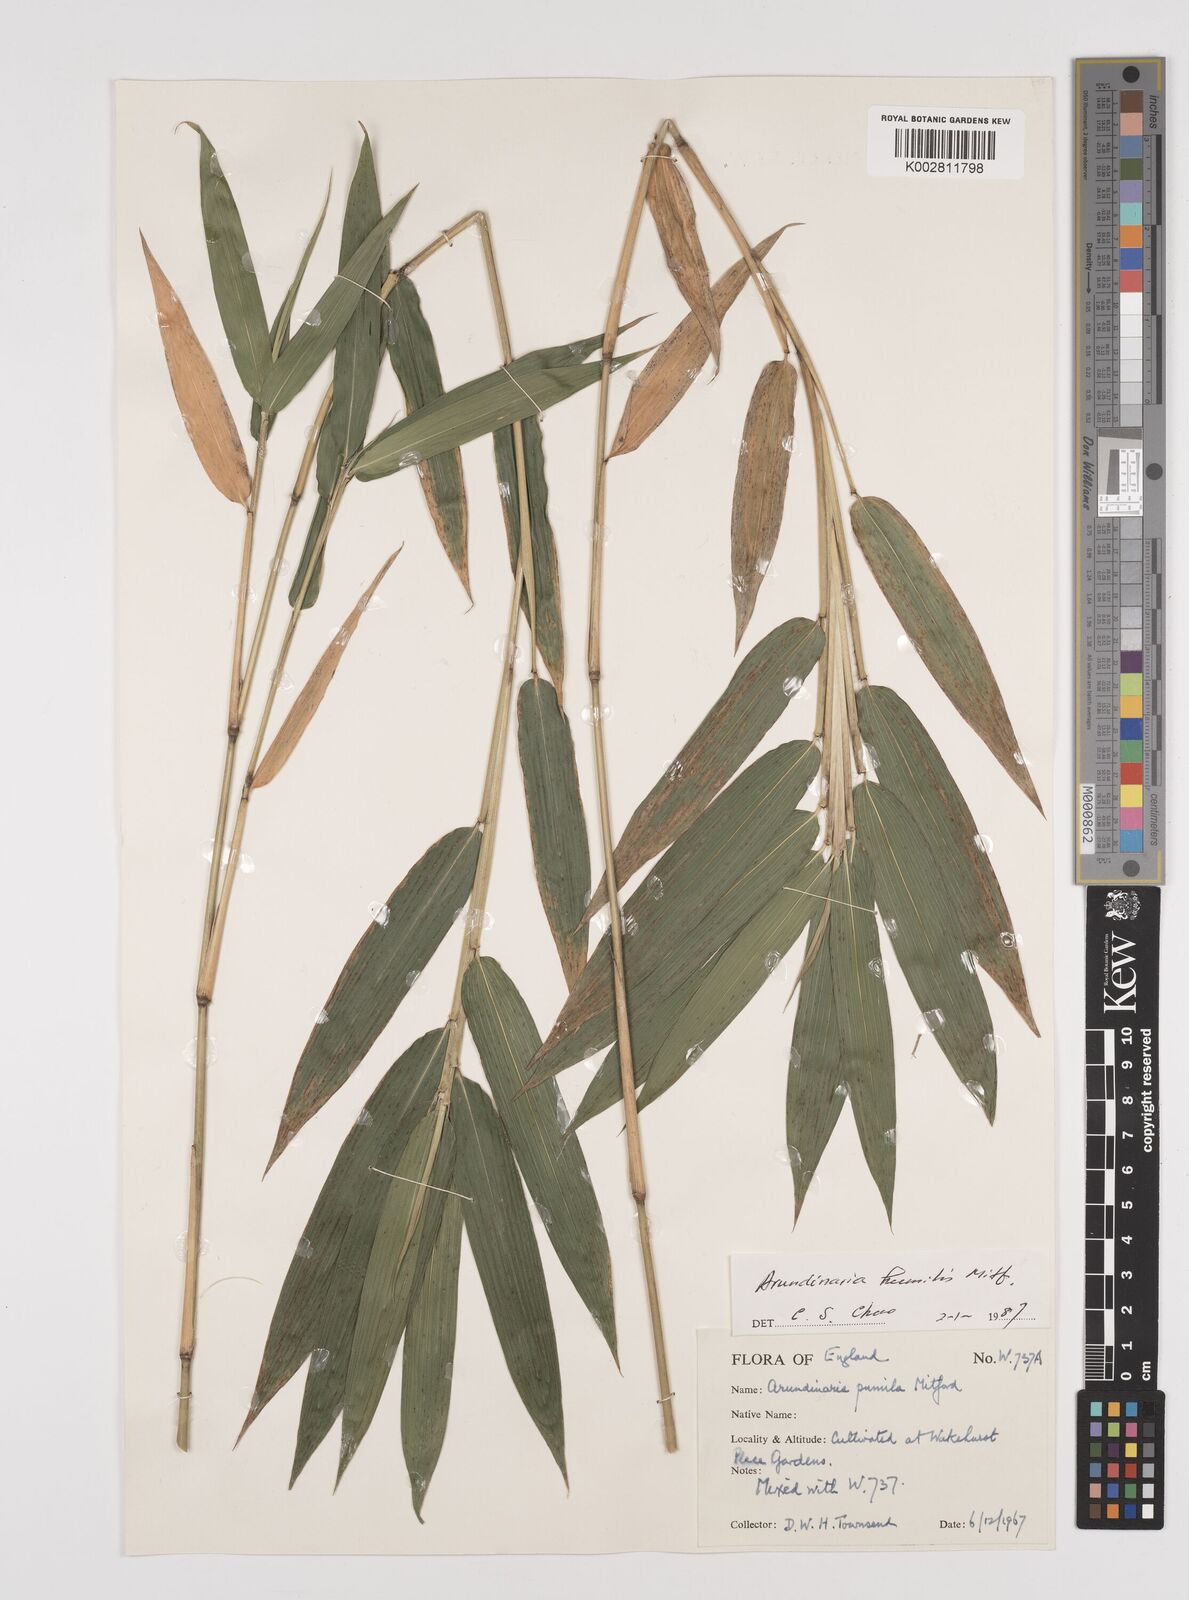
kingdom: Plantae
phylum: Tracheophyta
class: Liliopsida
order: Poales
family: Poaceae
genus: Pseudosasa
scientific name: Pseudosasa humilis
